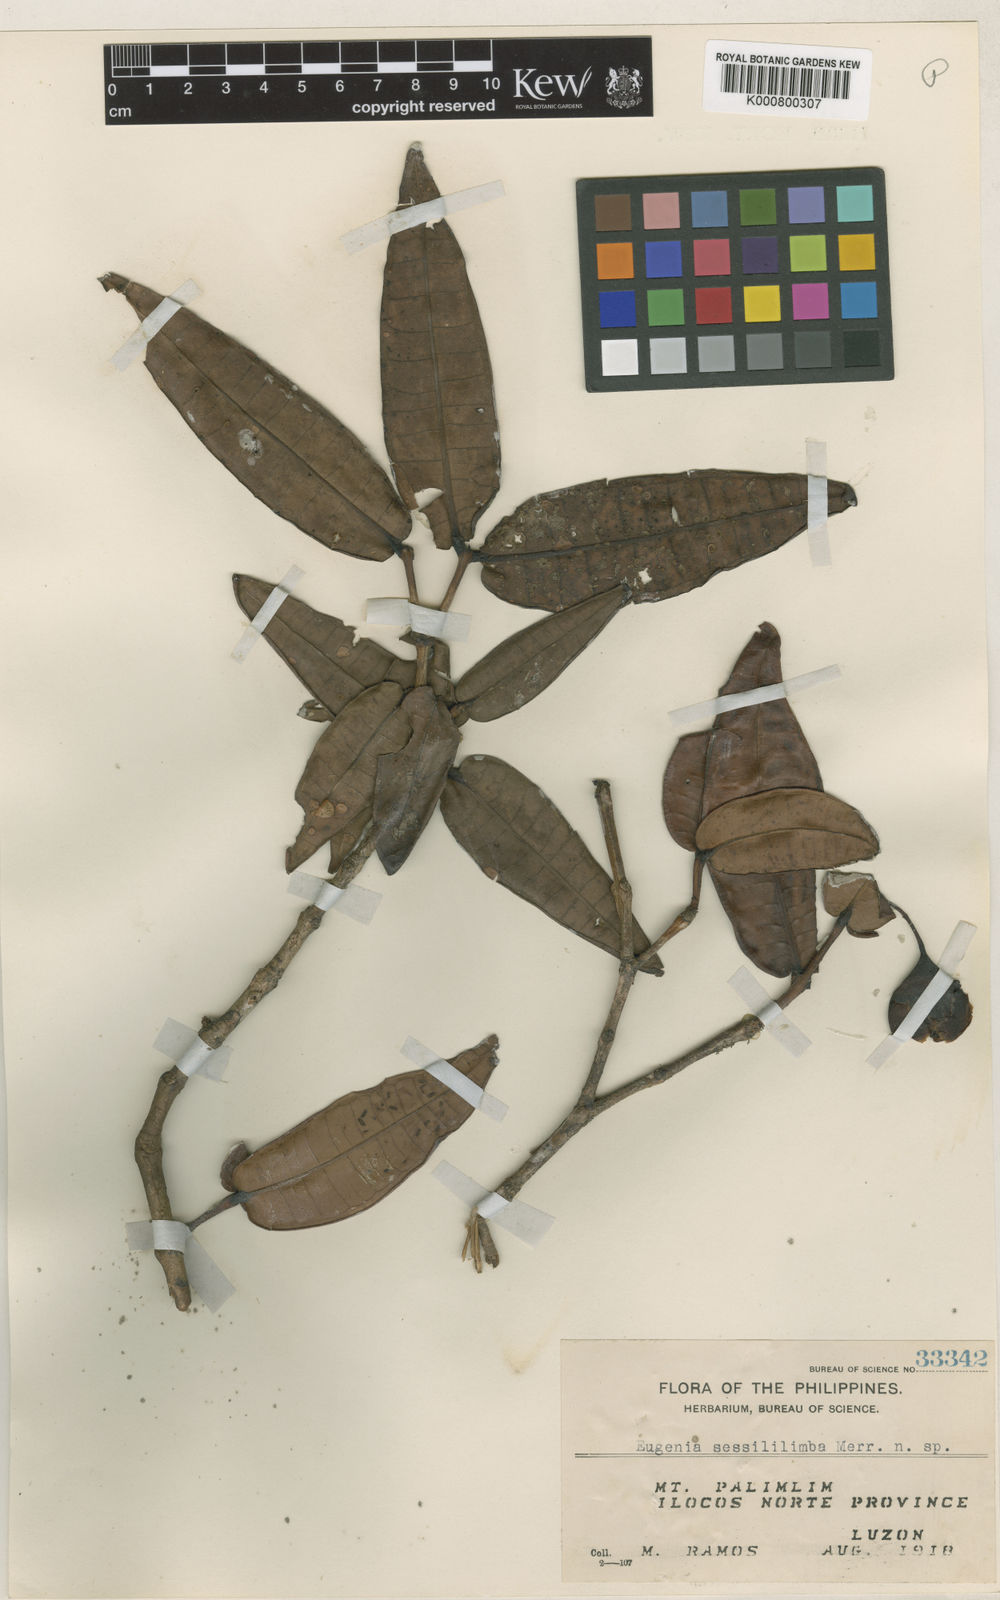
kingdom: Plantae
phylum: Tracheophyta
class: Magnoliopsida
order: Myrtales
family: Myrtaceae
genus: Syzygium
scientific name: Syzygium sessililimbum
